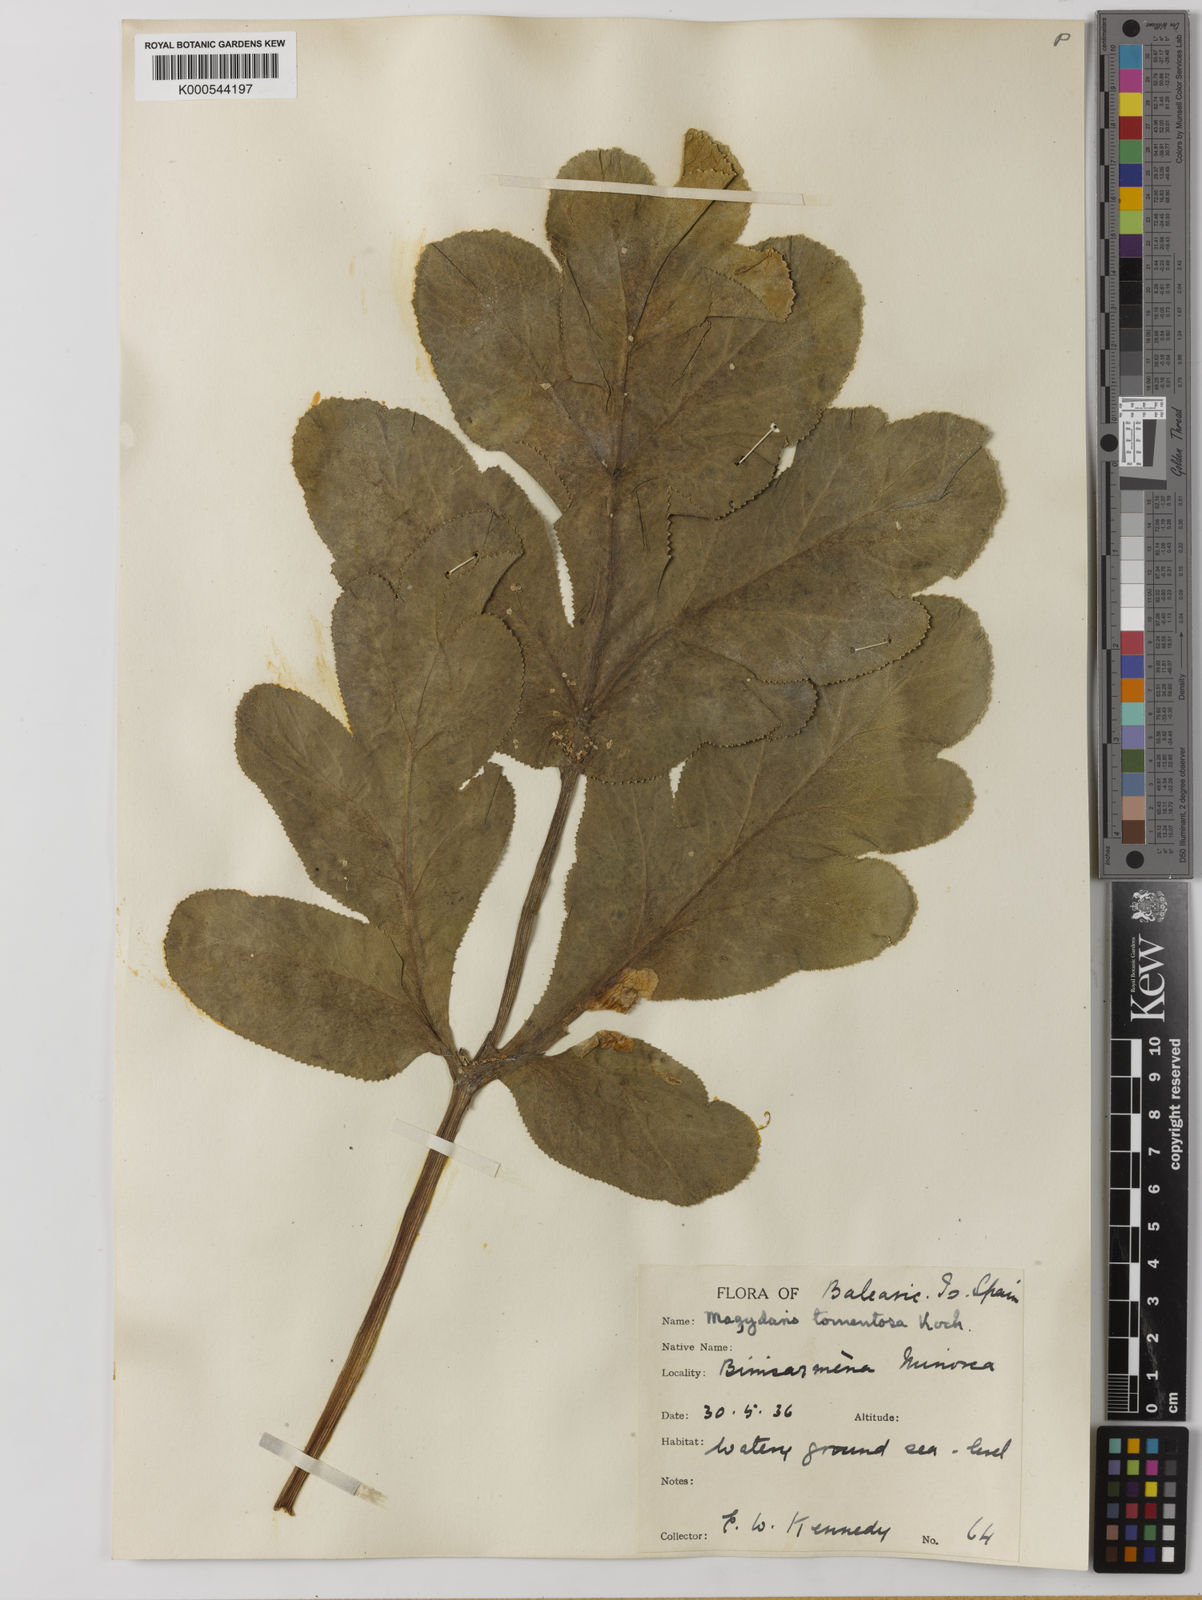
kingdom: Plantae
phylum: Tracheophyta
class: Magnoliopsida
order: Apiales
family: Apiaceae
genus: Magydaris
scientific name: Magydaris pastinacea
